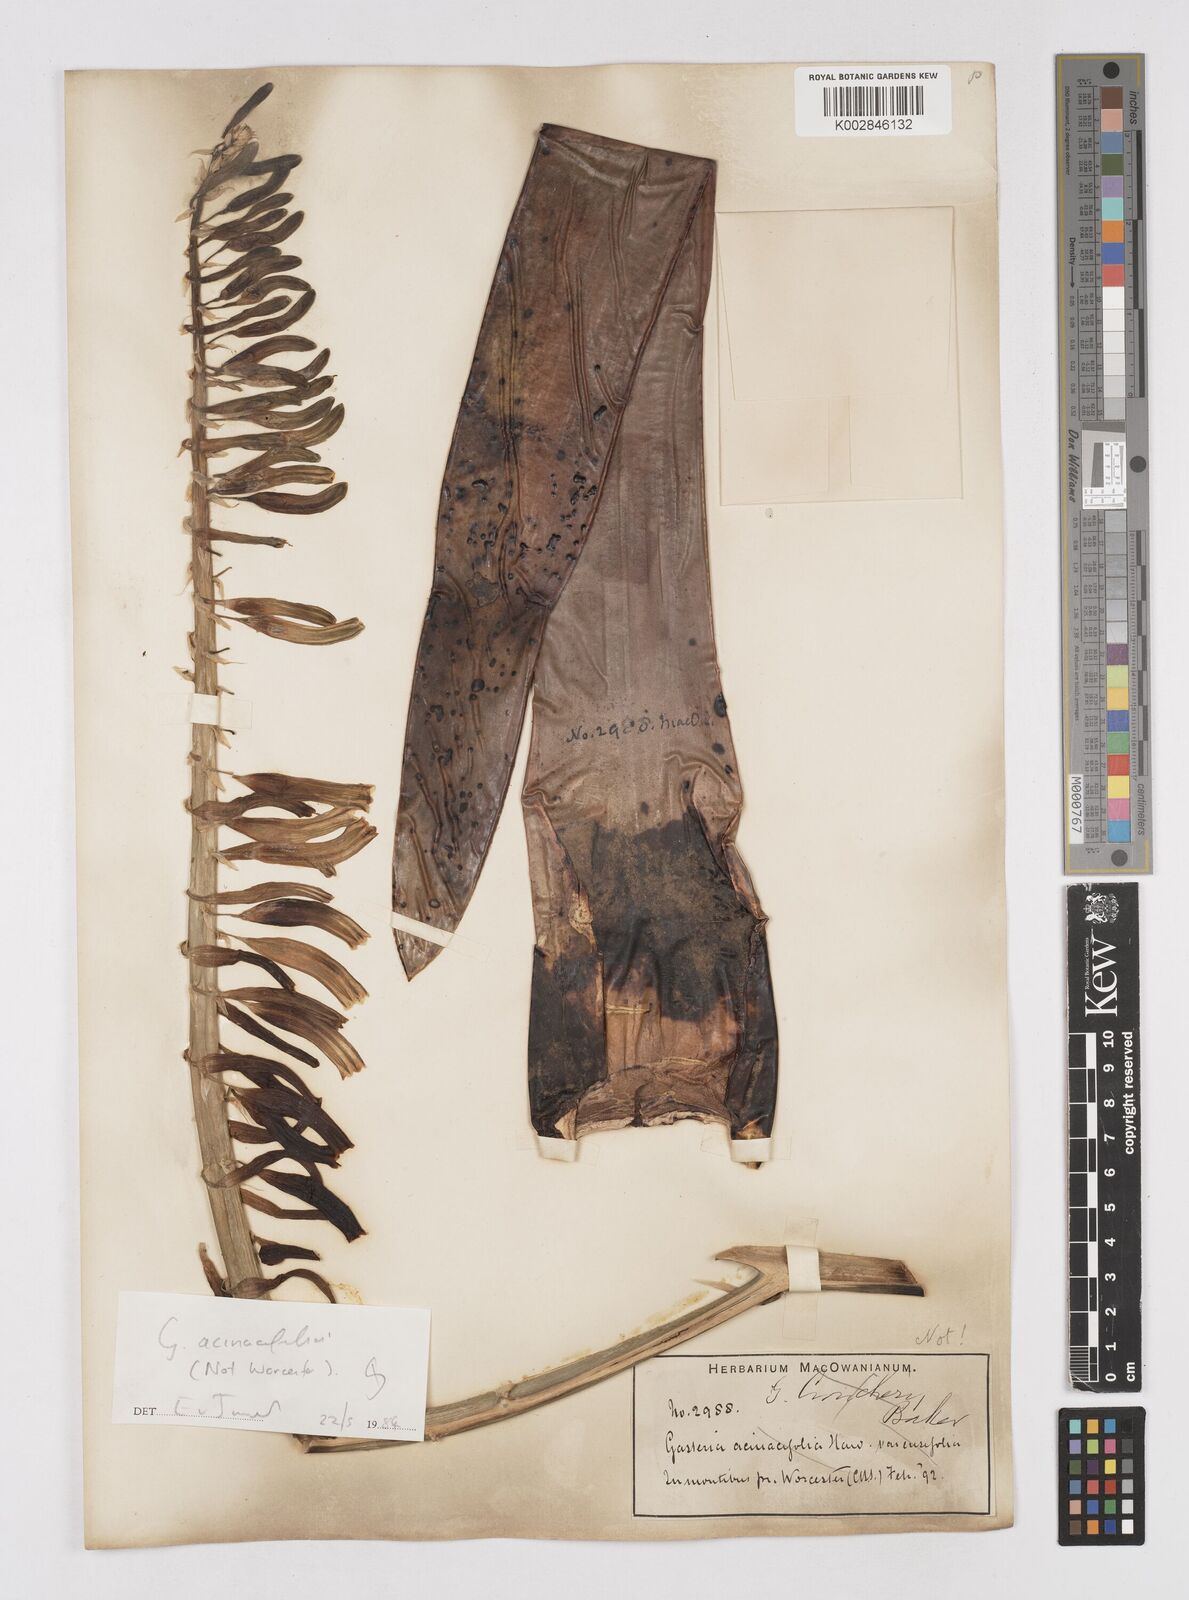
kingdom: Plantae
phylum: Tracheophyta
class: Liliopsida
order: Asparagales
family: Asphodelaceae
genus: Gasteria
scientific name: Gasteria
